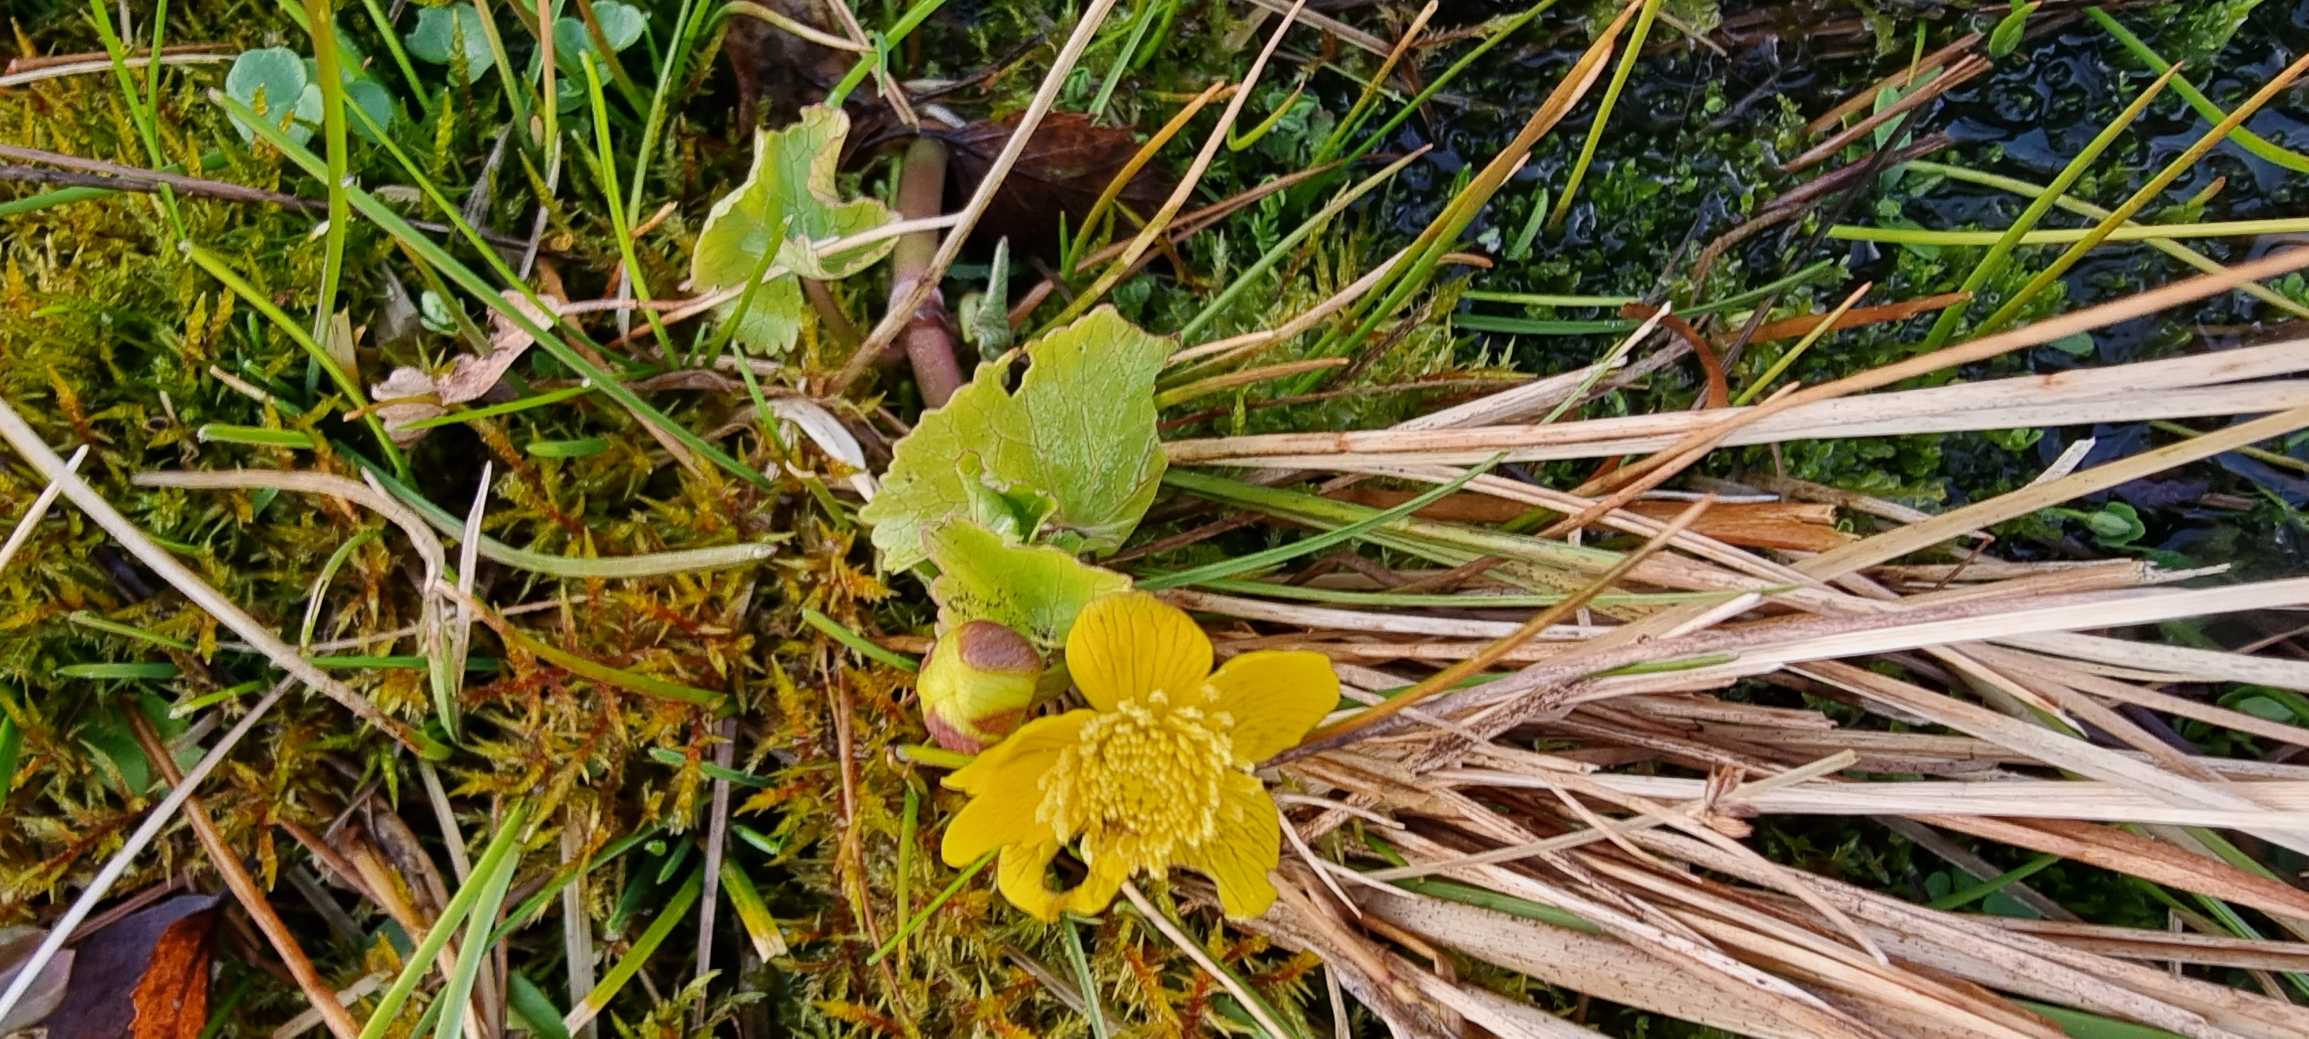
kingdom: Plantae
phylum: Tracheophyta
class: Magnoliopsida
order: Ranunculales
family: Ranunculaceae
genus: Caltha
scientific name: Caltha palustris
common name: Eng-kabbeleje
